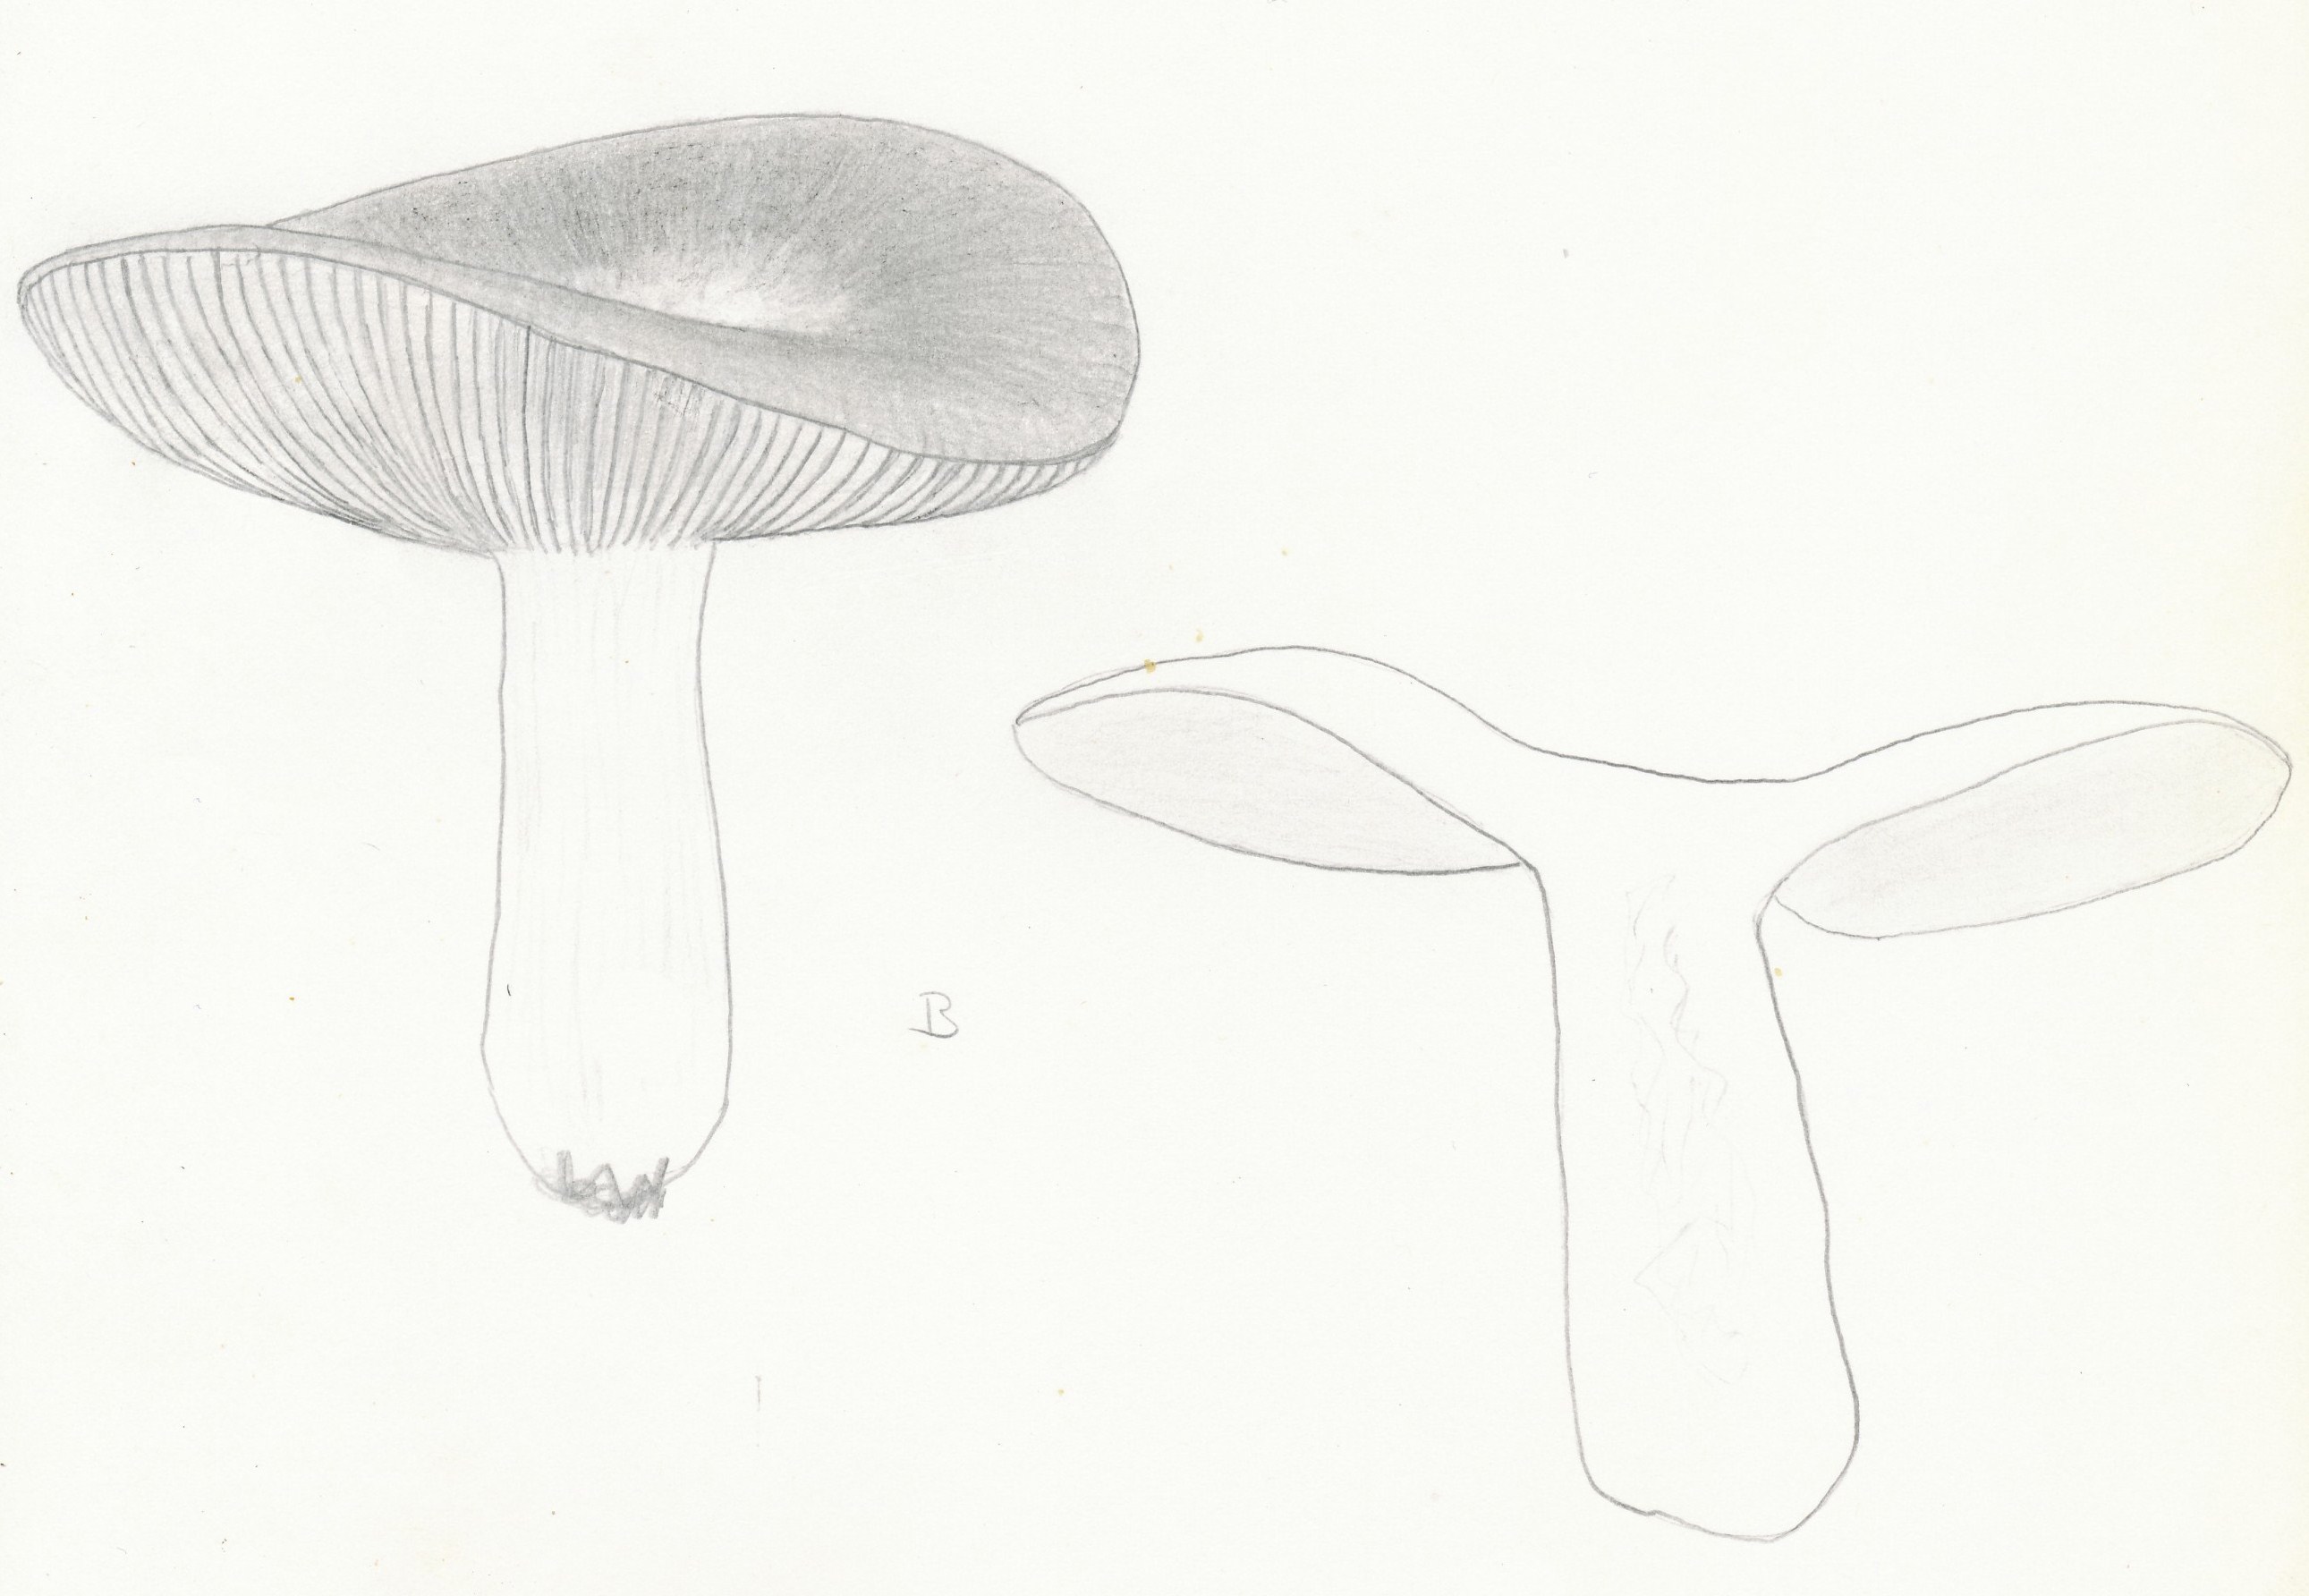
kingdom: Fungi
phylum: Basidiomycota
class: Agaricomycetes
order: Russulales
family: Russulaceae
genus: Russula
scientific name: Russula cuprea
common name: kanel-skørhat
